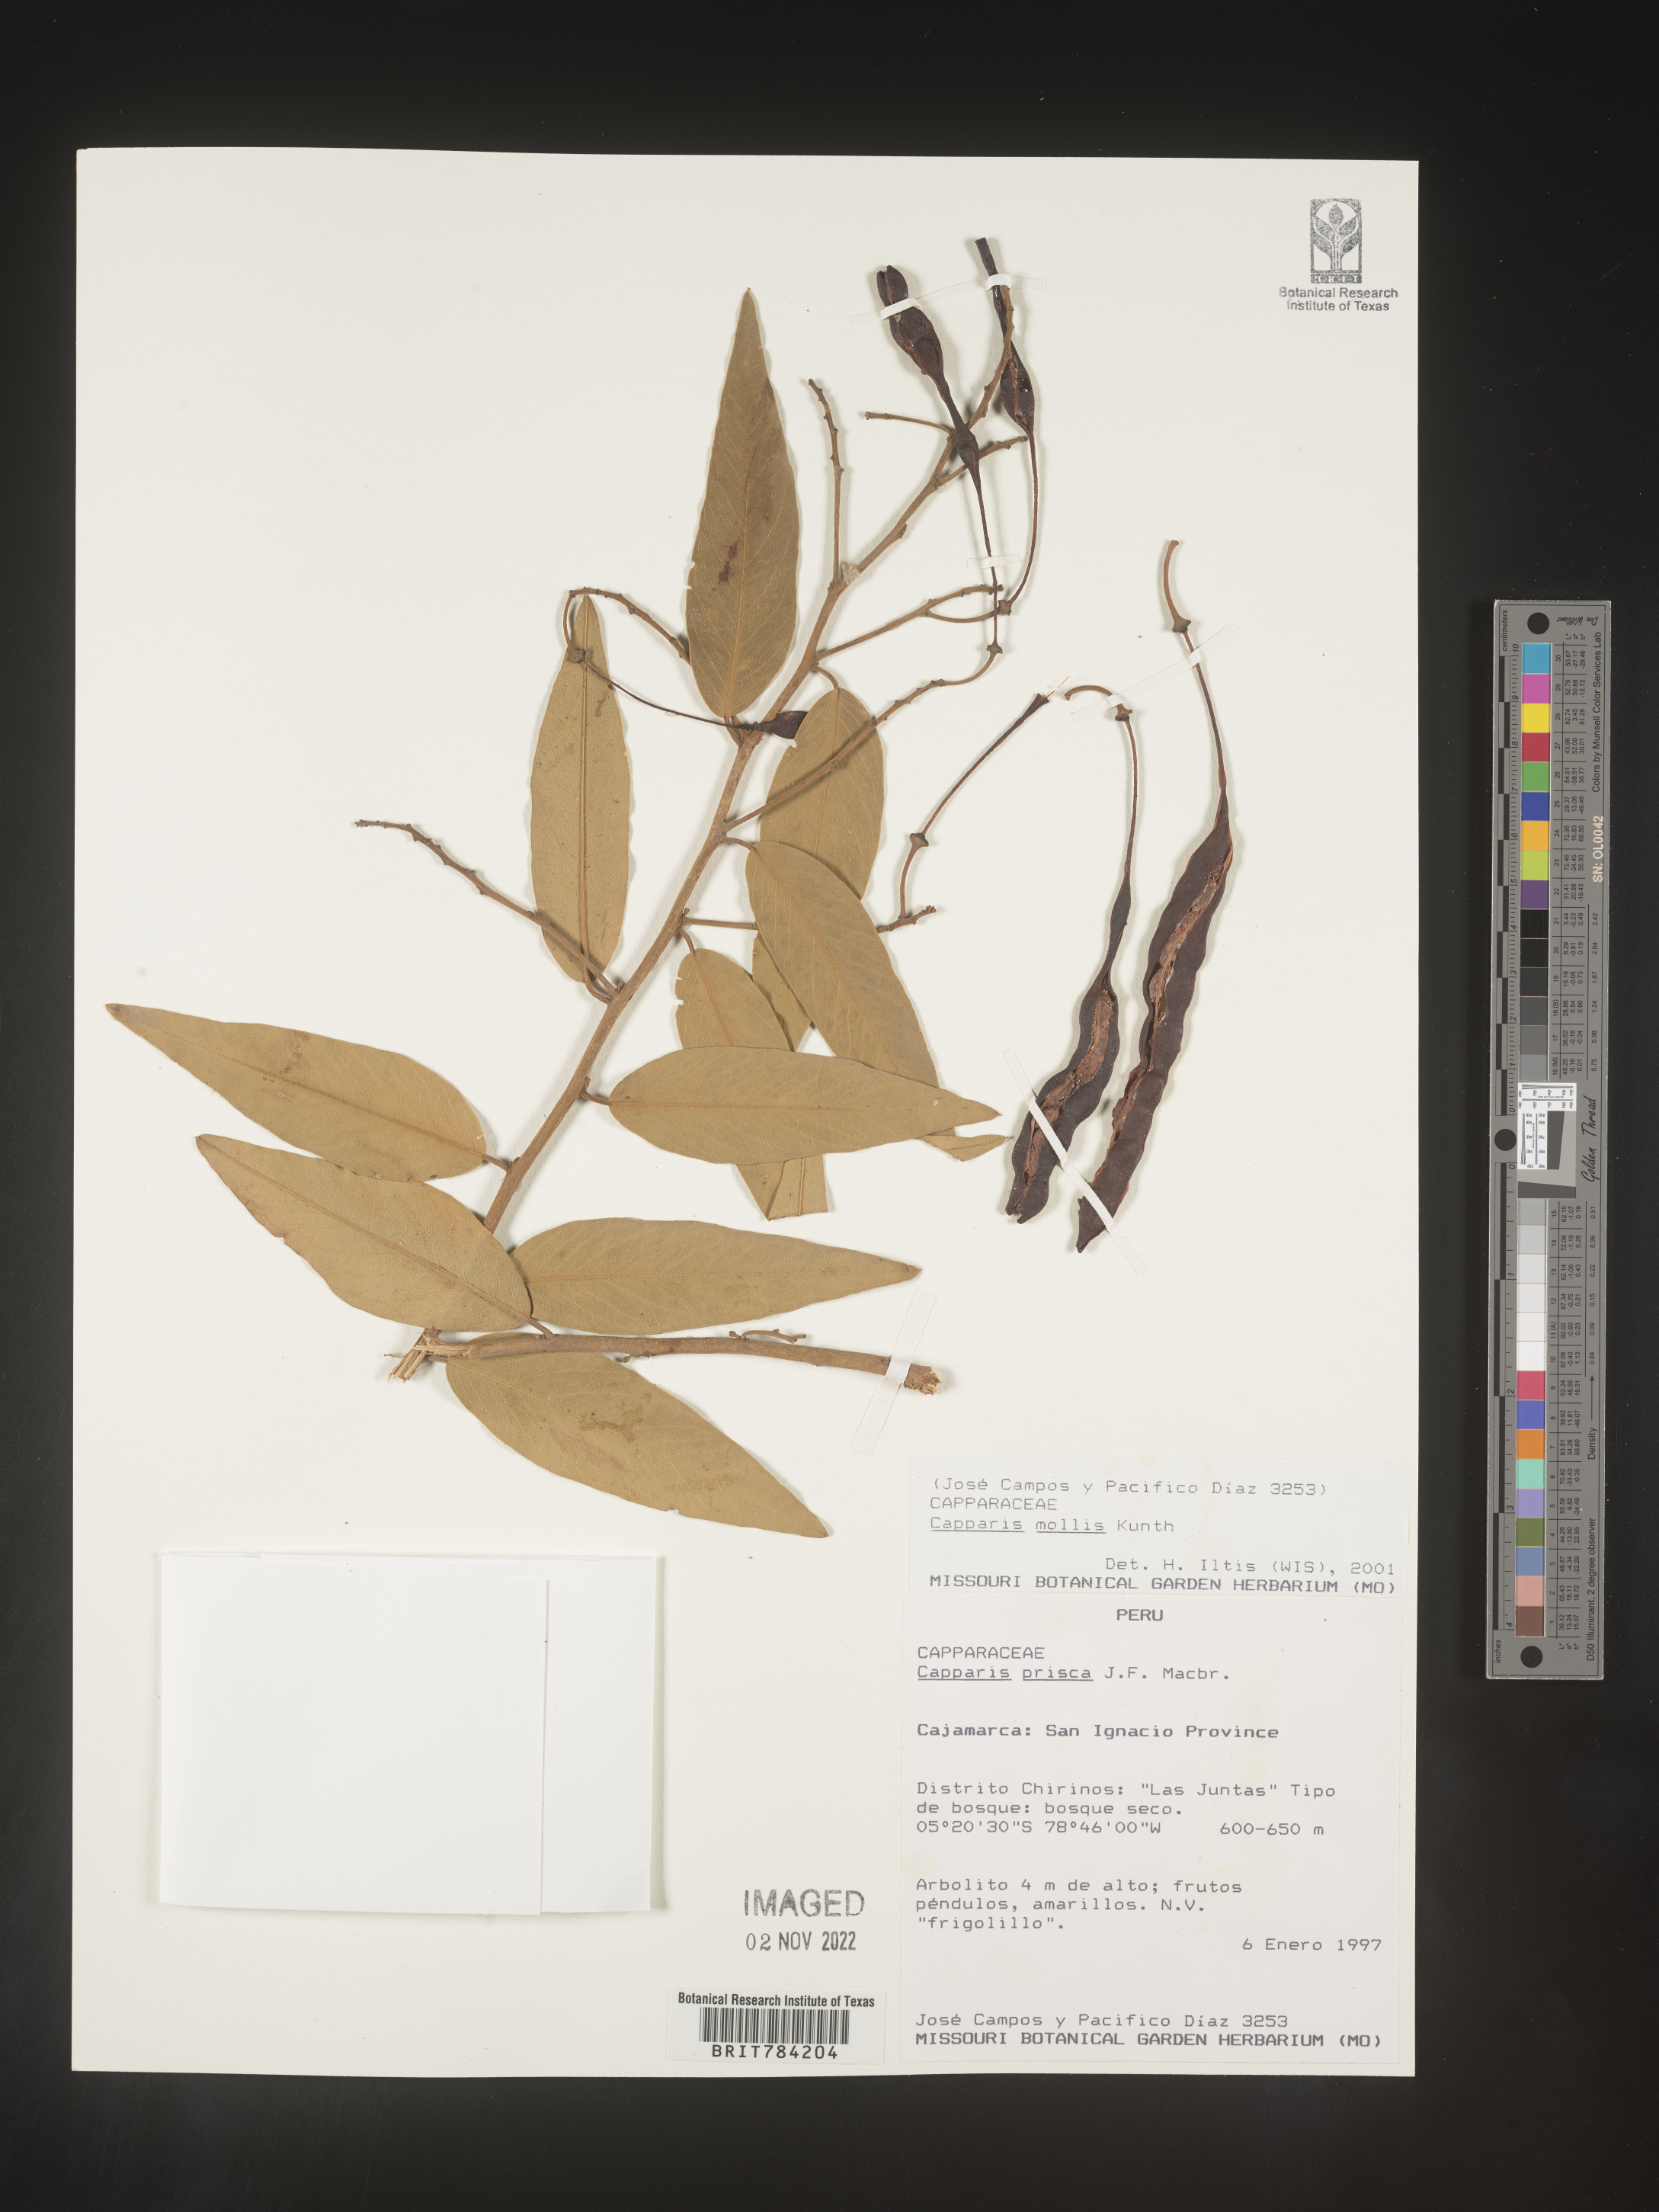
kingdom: Plantae
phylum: Tracheophyta
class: Magnoliopsida
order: Brassicales
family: Capparaceae
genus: Capparis
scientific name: Capparis
